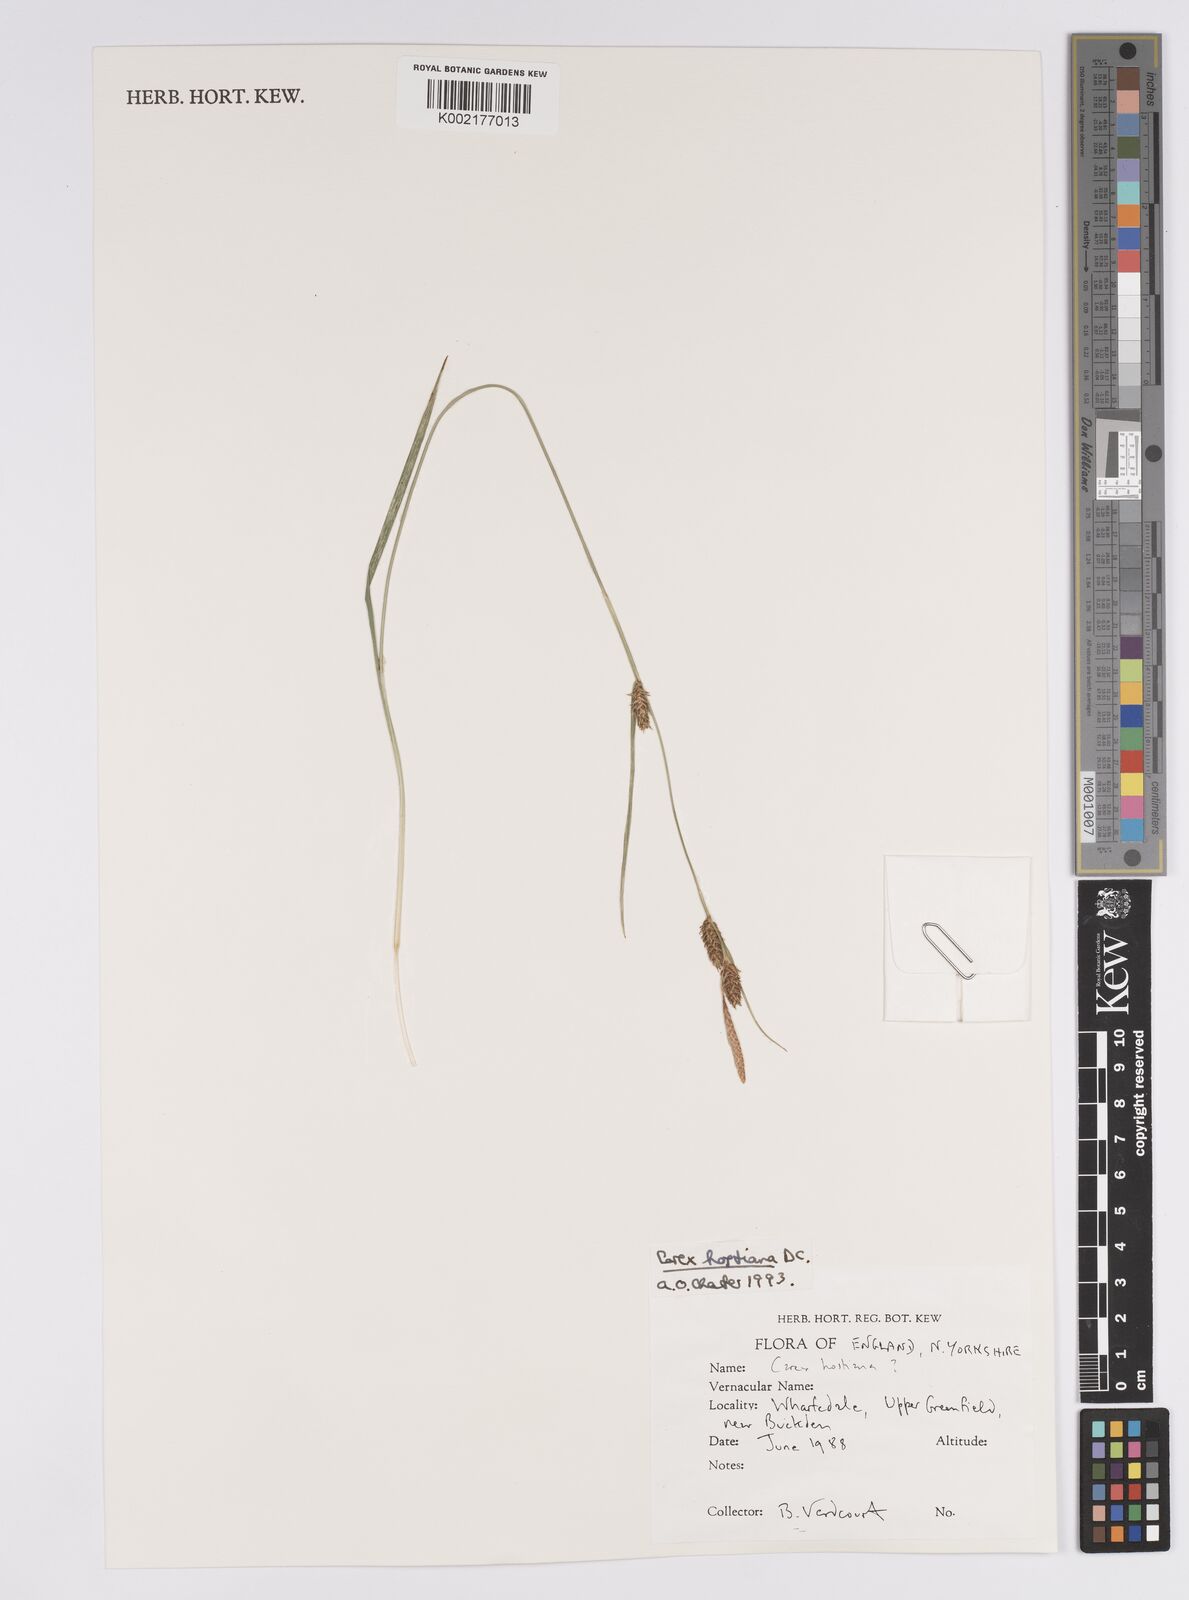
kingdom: Plantae
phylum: Tracheophyta
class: Liliopsida
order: Poales
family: Cyperaceae
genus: Carex
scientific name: Carex hostiana
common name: Tawny sedge
